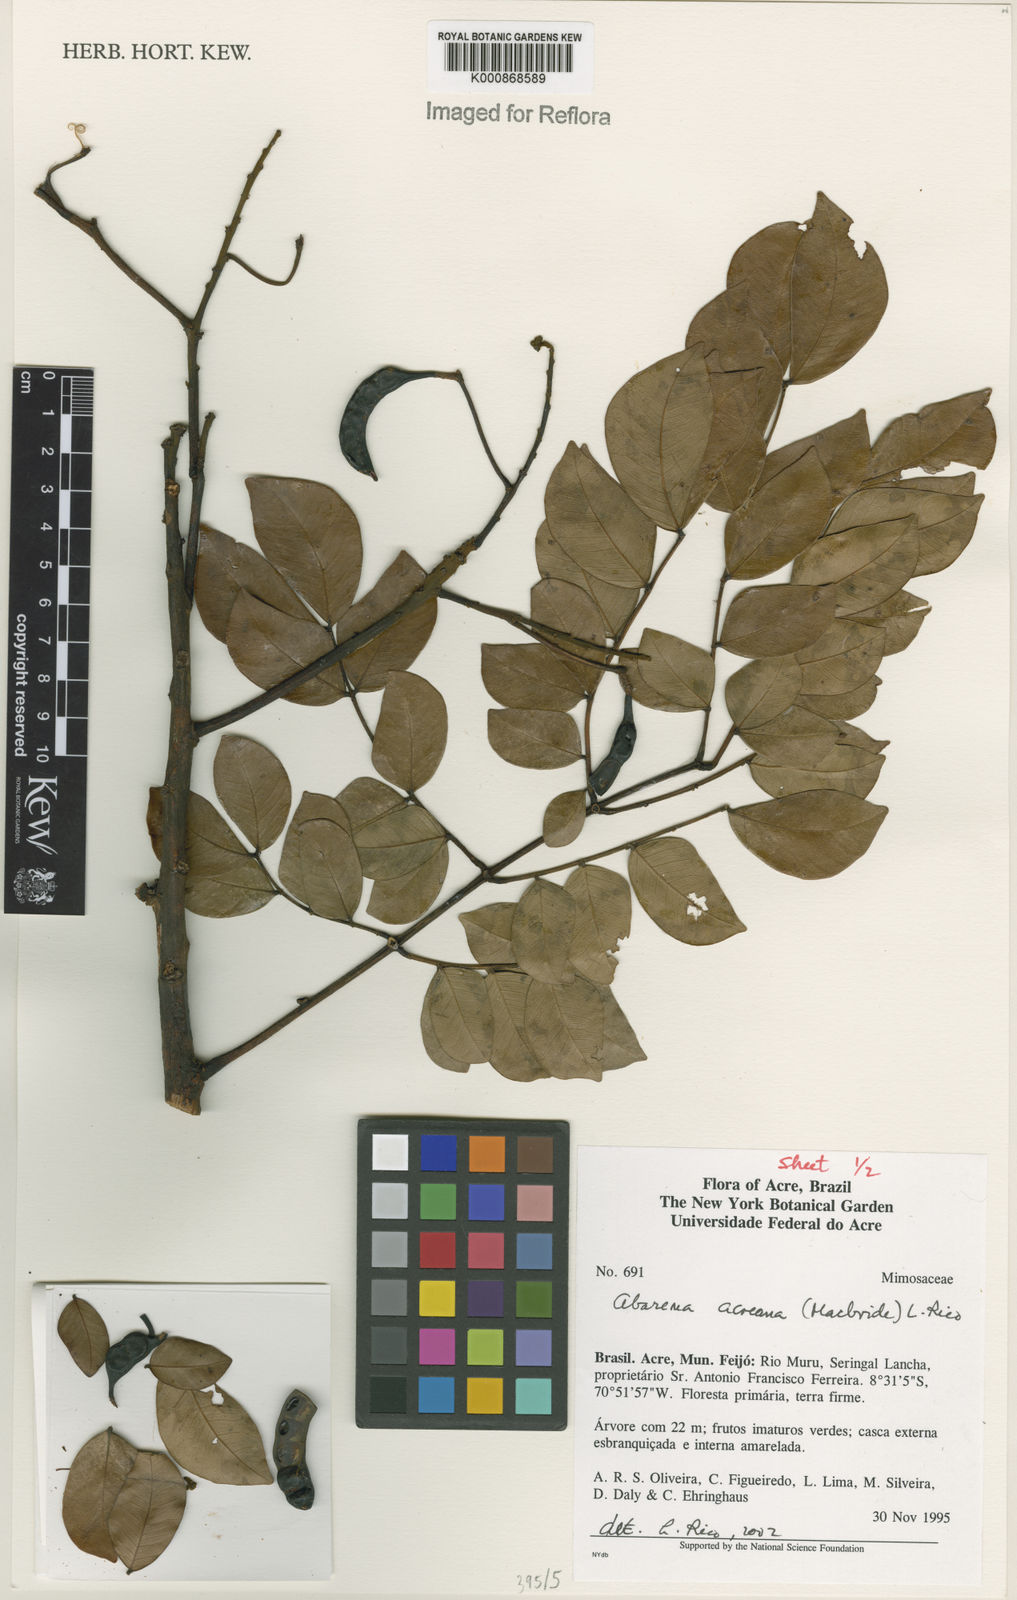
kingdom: Plantae
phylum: Tracheophyta
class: Magnoliopsida
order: Fabales
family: Fabaceae
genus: Hydrochorea
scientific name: Hydrochorea acreana
